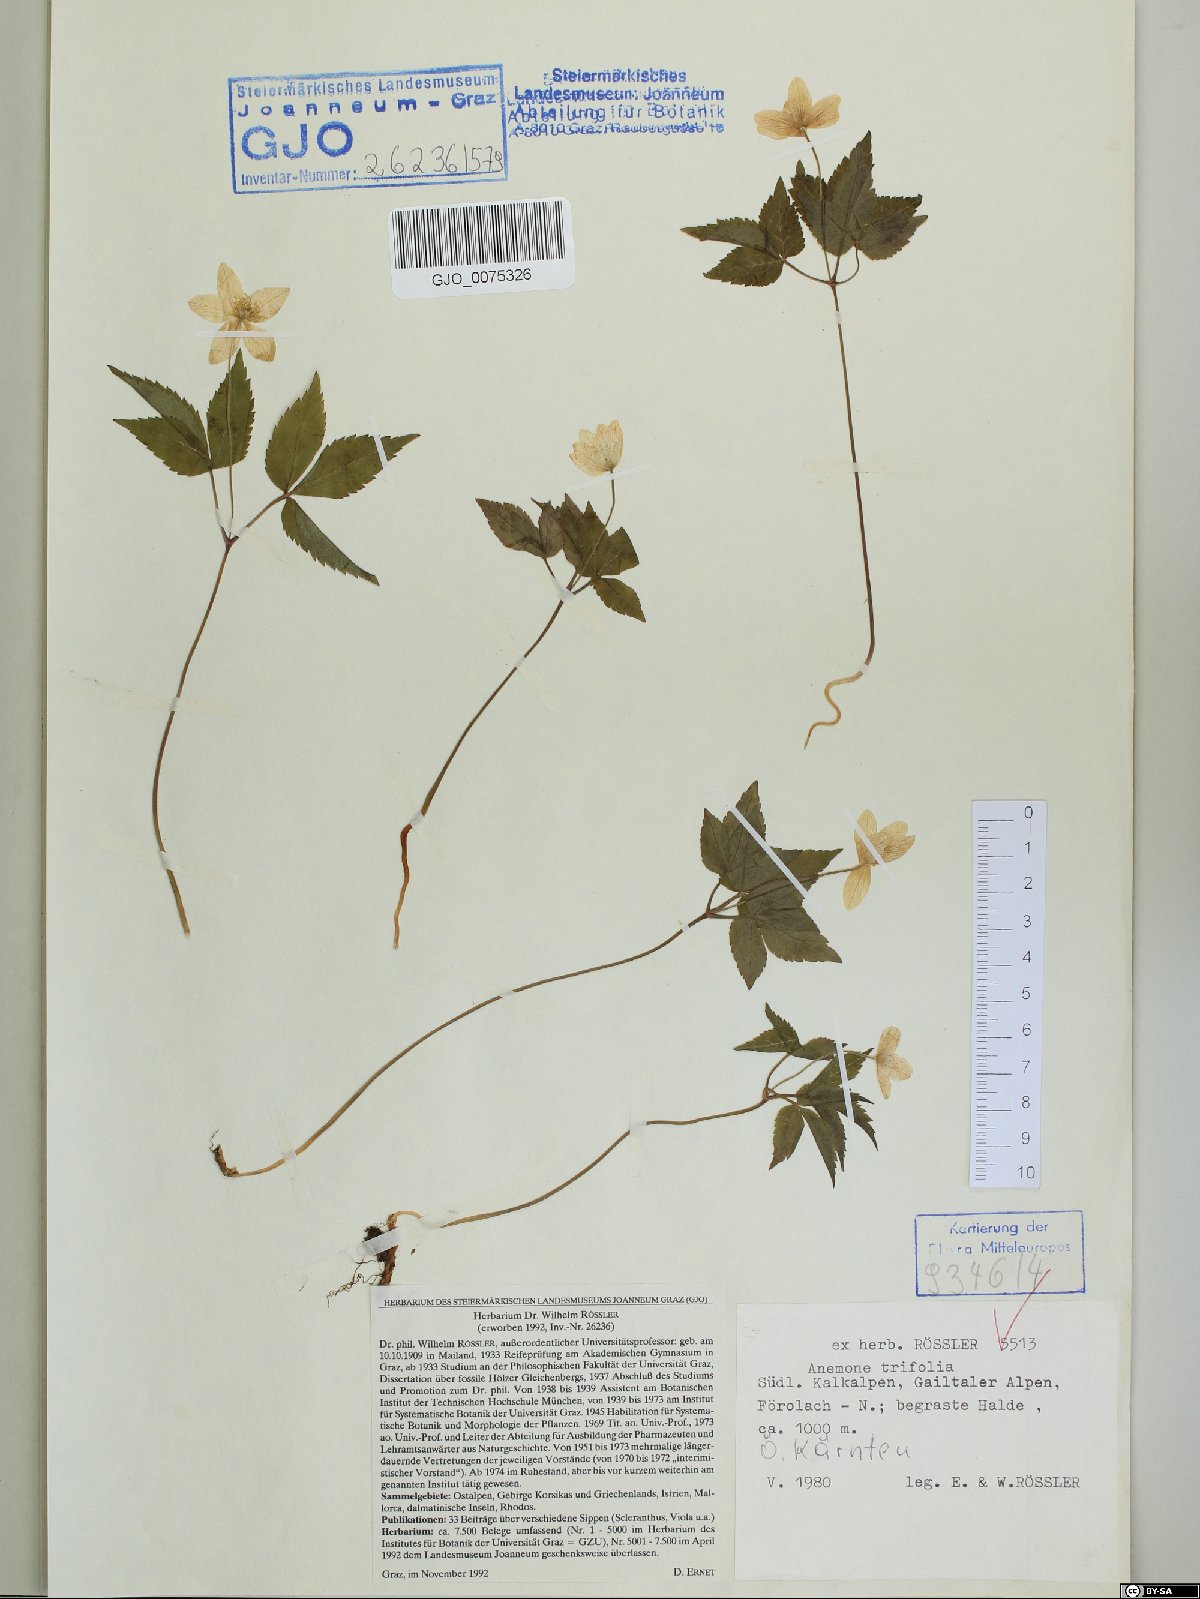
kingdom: Plantae
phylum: Tracheophyta
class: Magnoliopsida
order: Ranunculales
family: Ranunculaceae
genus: Anemone
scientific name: Anemone trifolia
